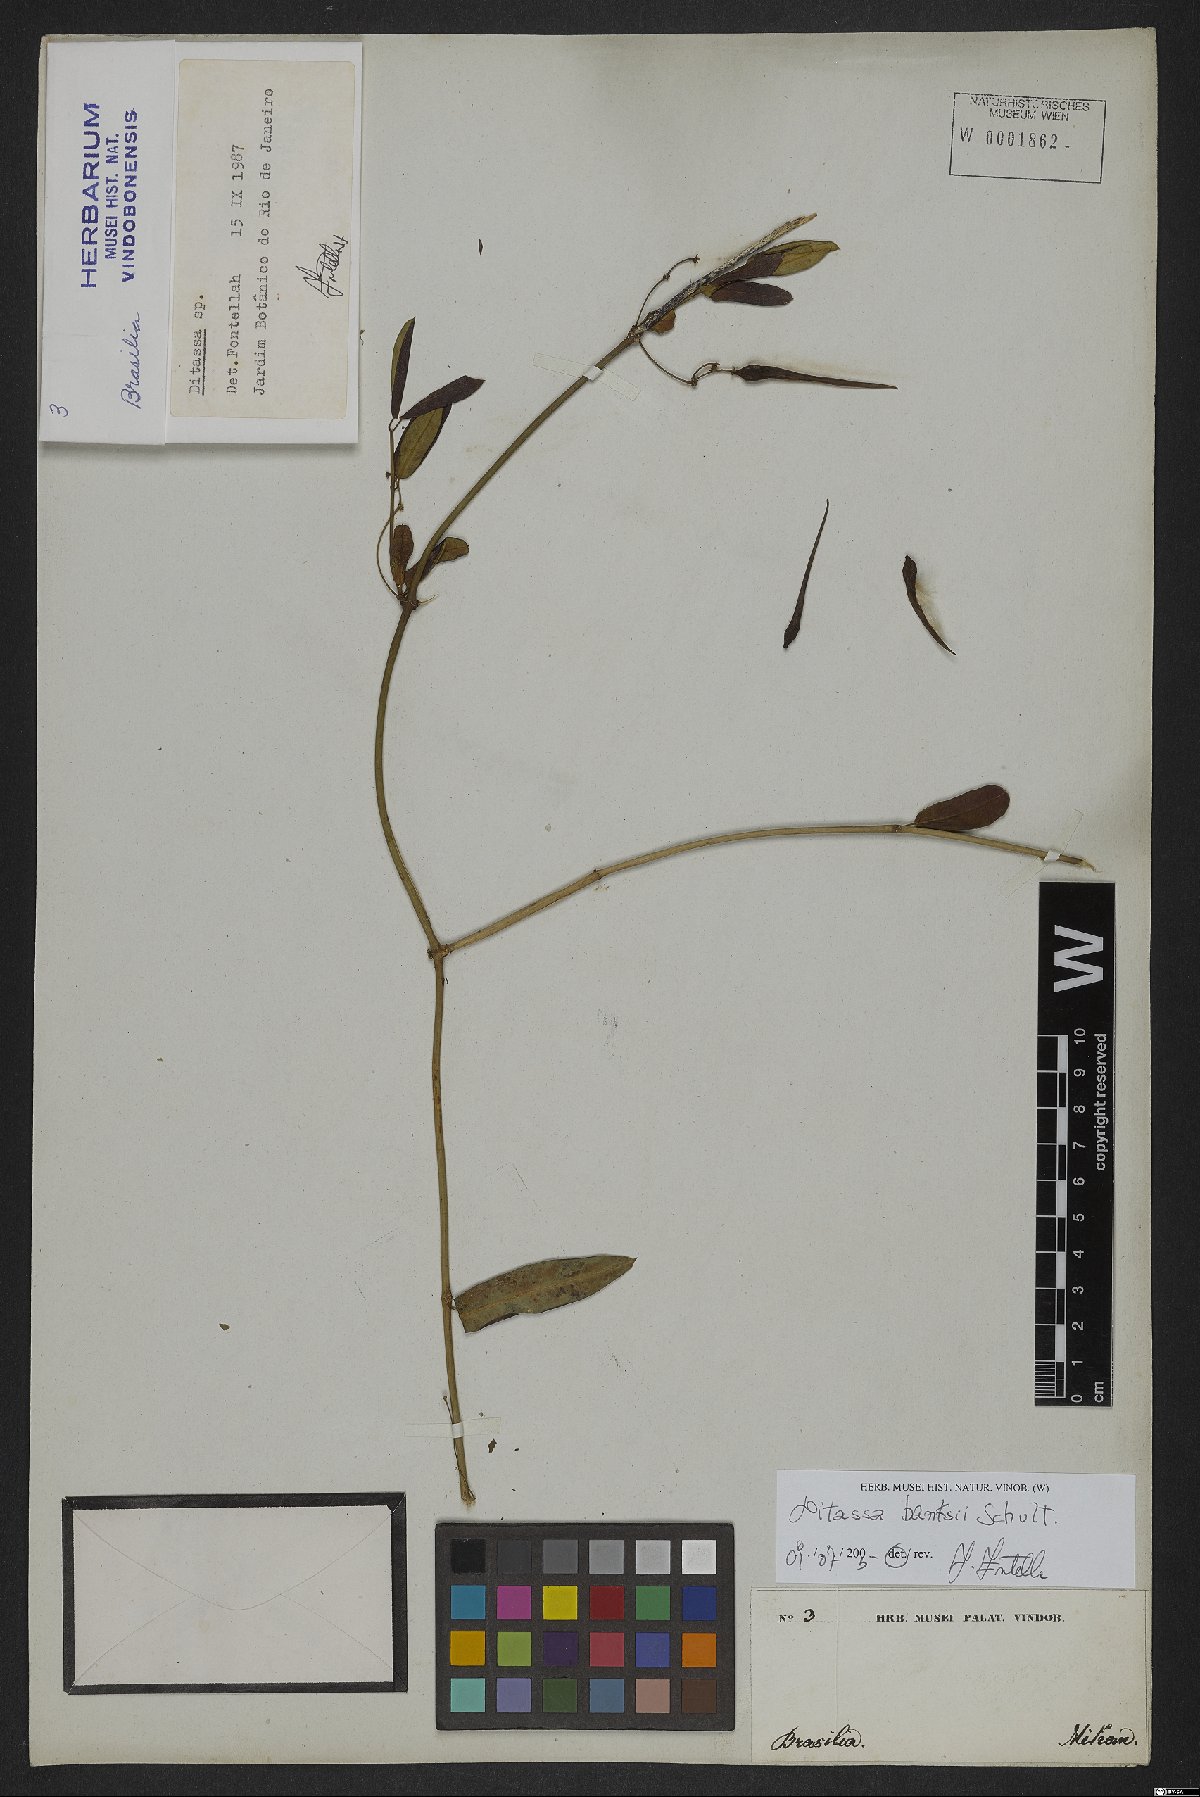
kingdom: Plantae
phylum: Tracheophyta
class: Magnoliopsida
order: Gentianales
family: Apocynaceae
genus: Ditassa
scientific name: Ditassa banksii
